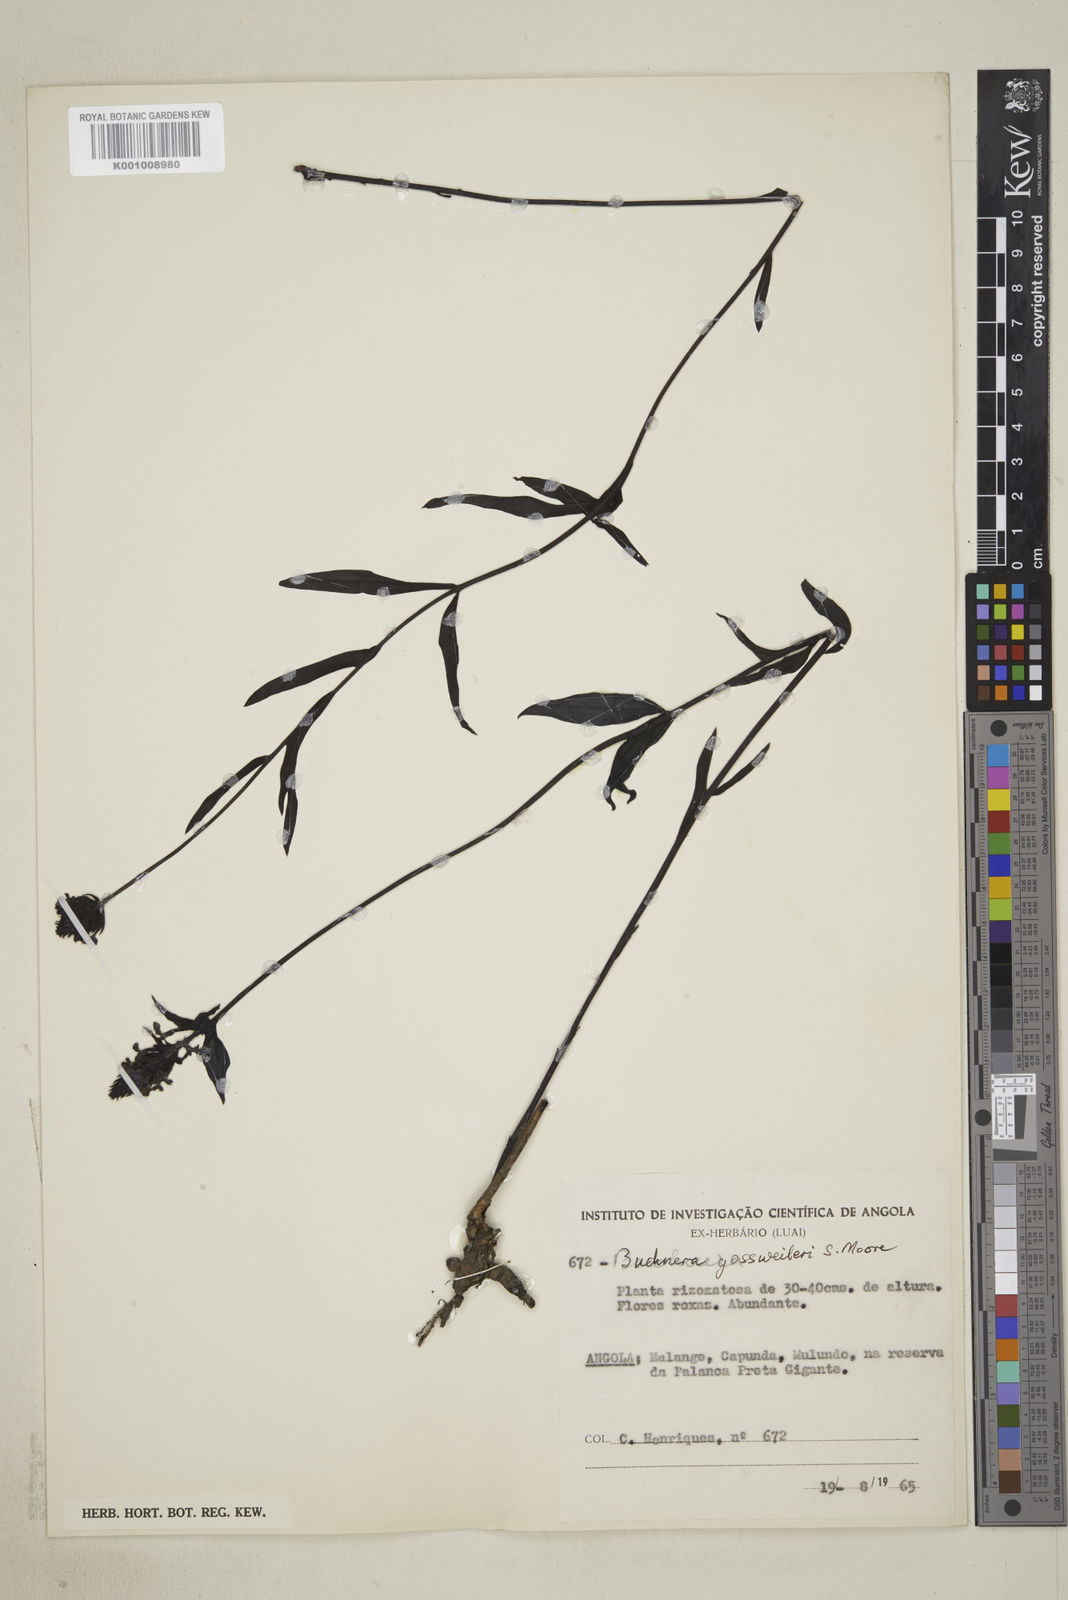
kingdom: Plantae
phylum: Tracheophyta
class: Magnoliopsida
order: Lamiales
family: Orobanchaceae
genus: Buchnera
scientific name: Buchnera gossweileri
